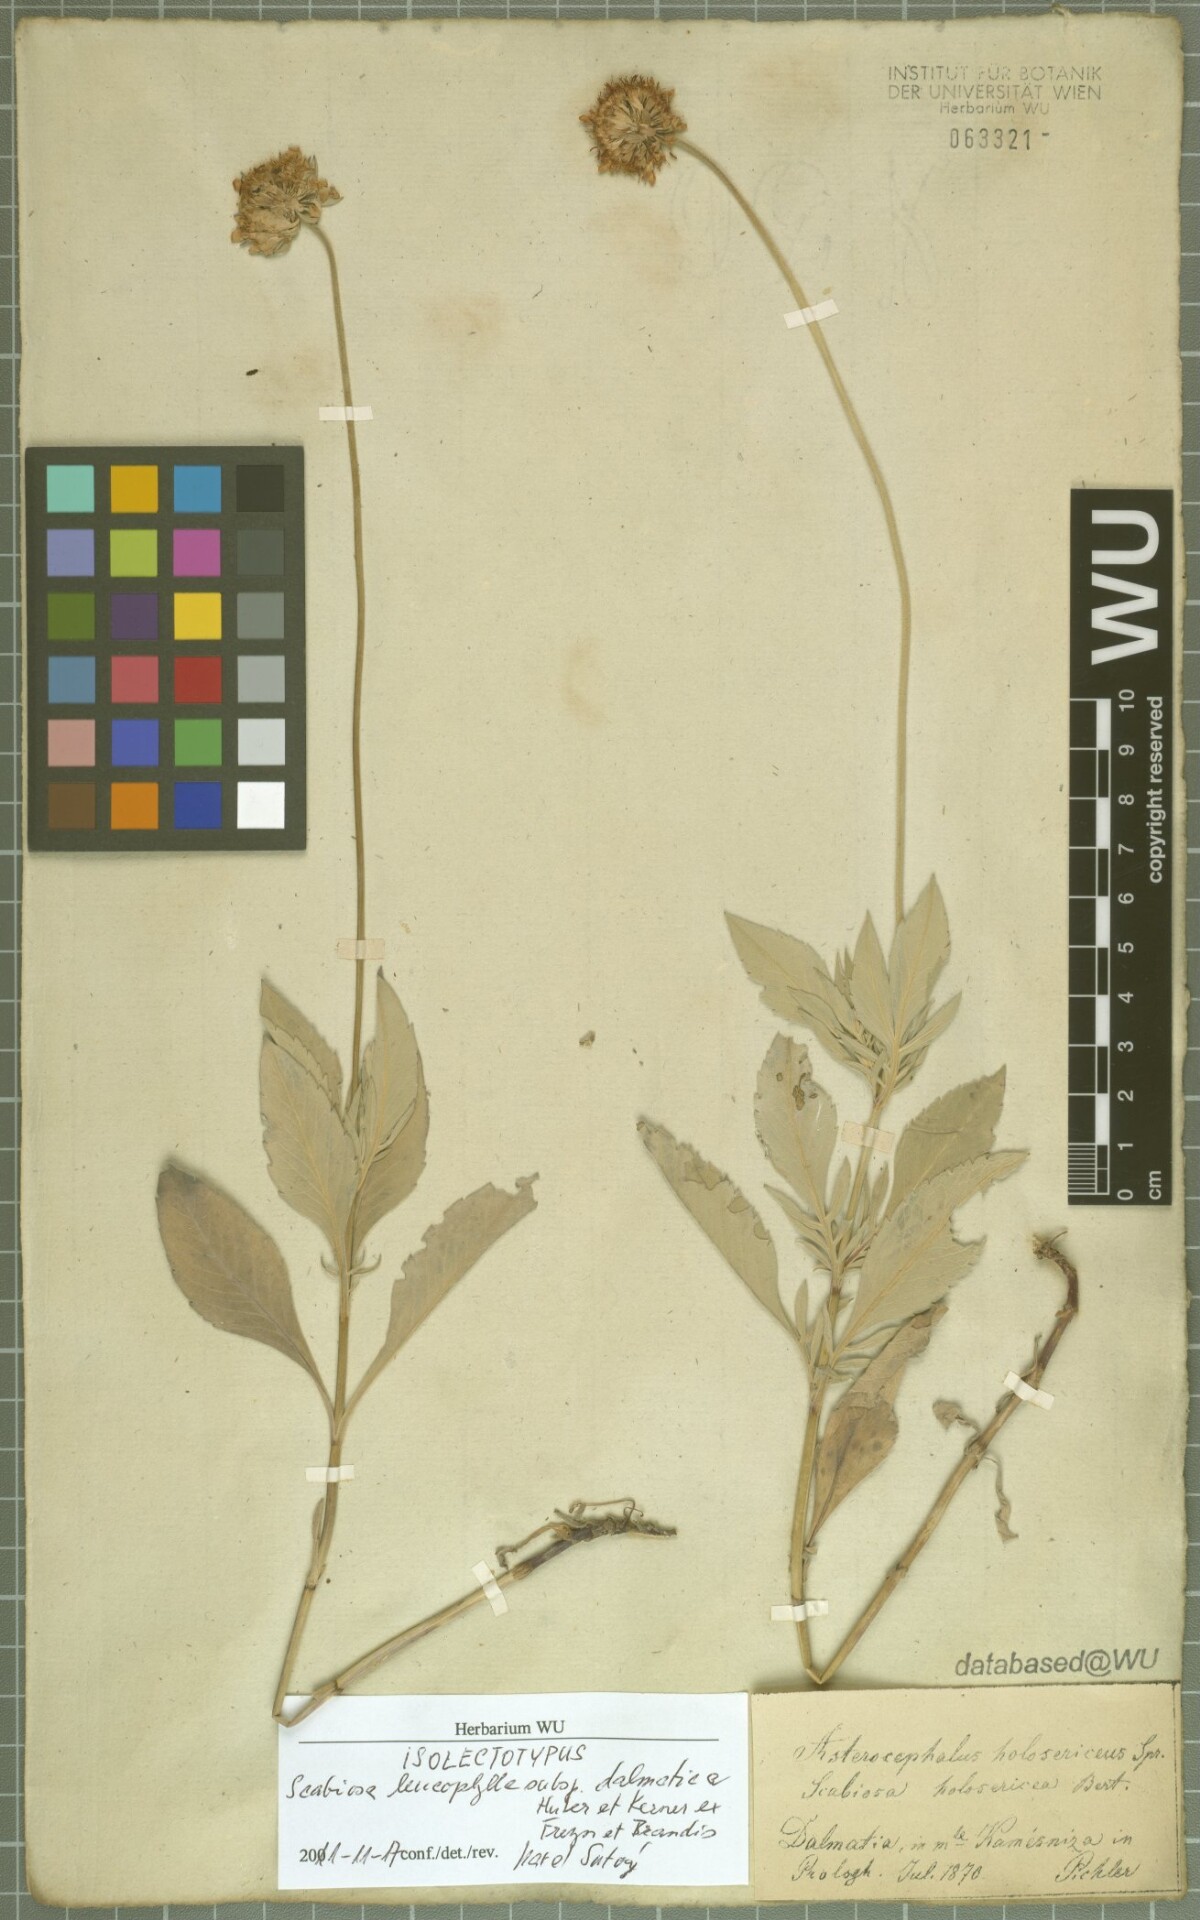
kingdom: Plantae
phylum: Tracheophyta
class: Magnoliopsida
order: Dipsacales
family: Caprifoliaceae
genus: Scabiosa
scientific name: Scabiosa cinerea
